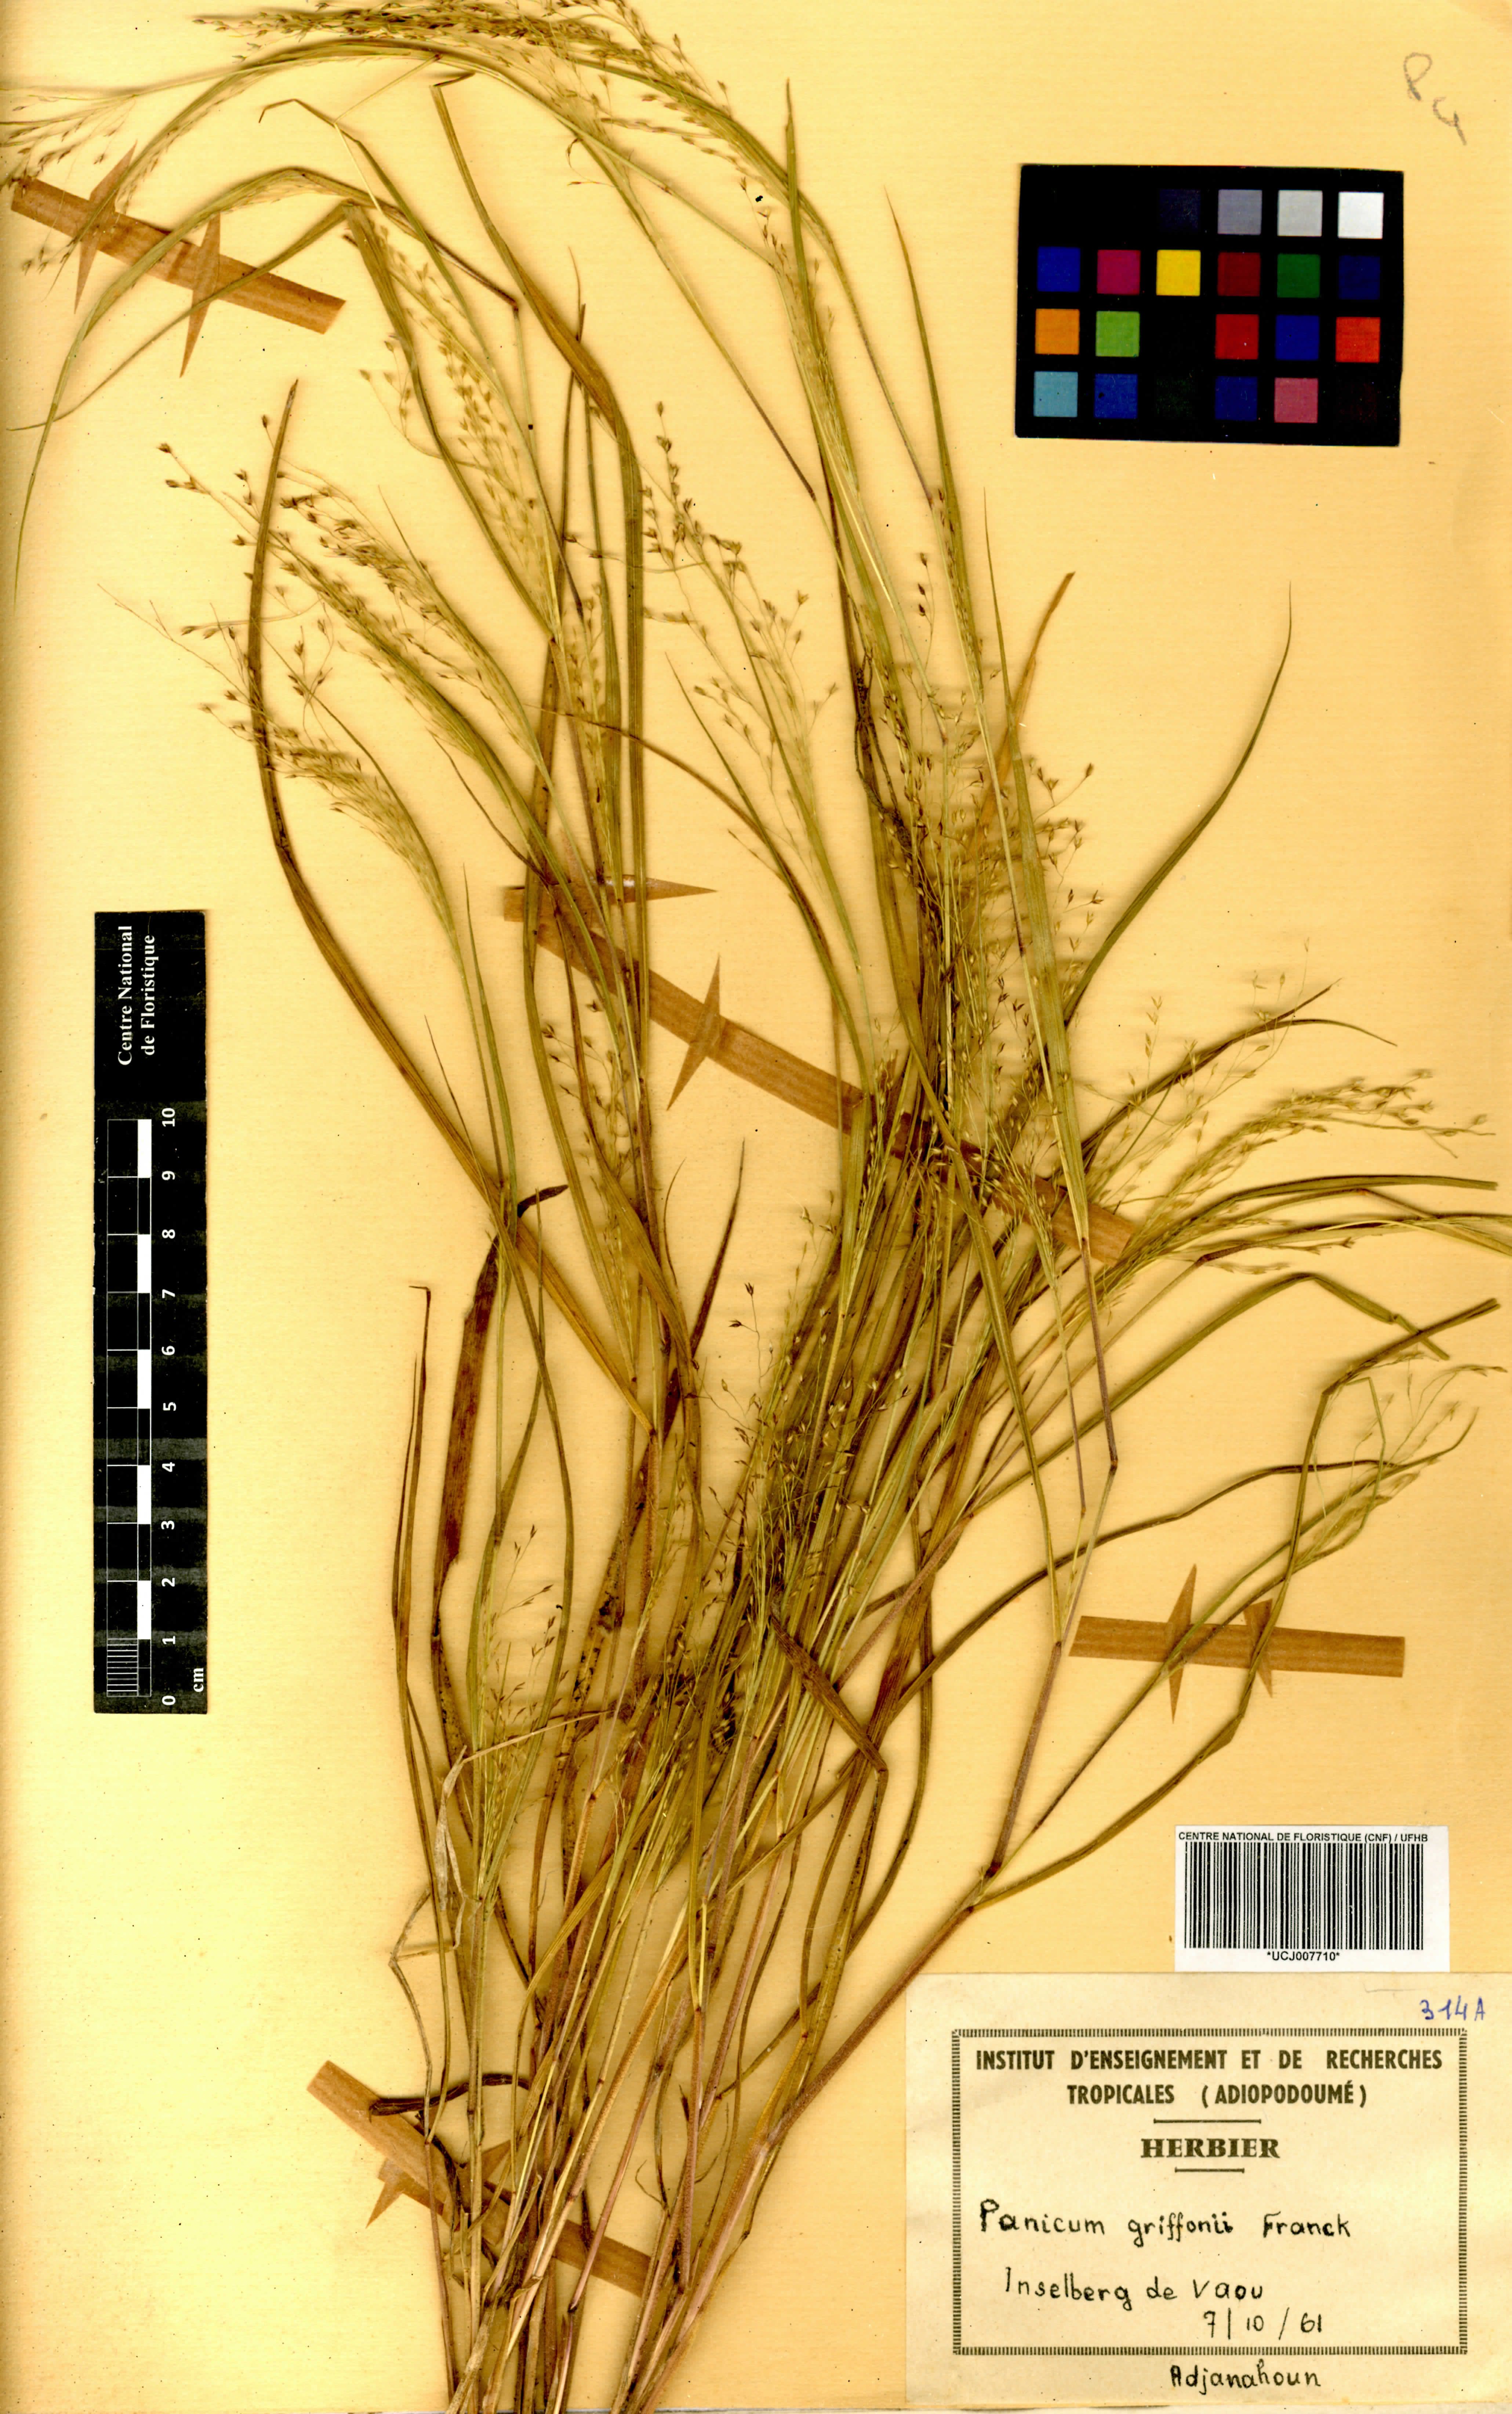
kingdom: Plantae
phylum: Tracheophyta
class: Liliopsida
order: Poales
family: Poaceae
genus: Panicum
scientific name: Panicum griffonii
